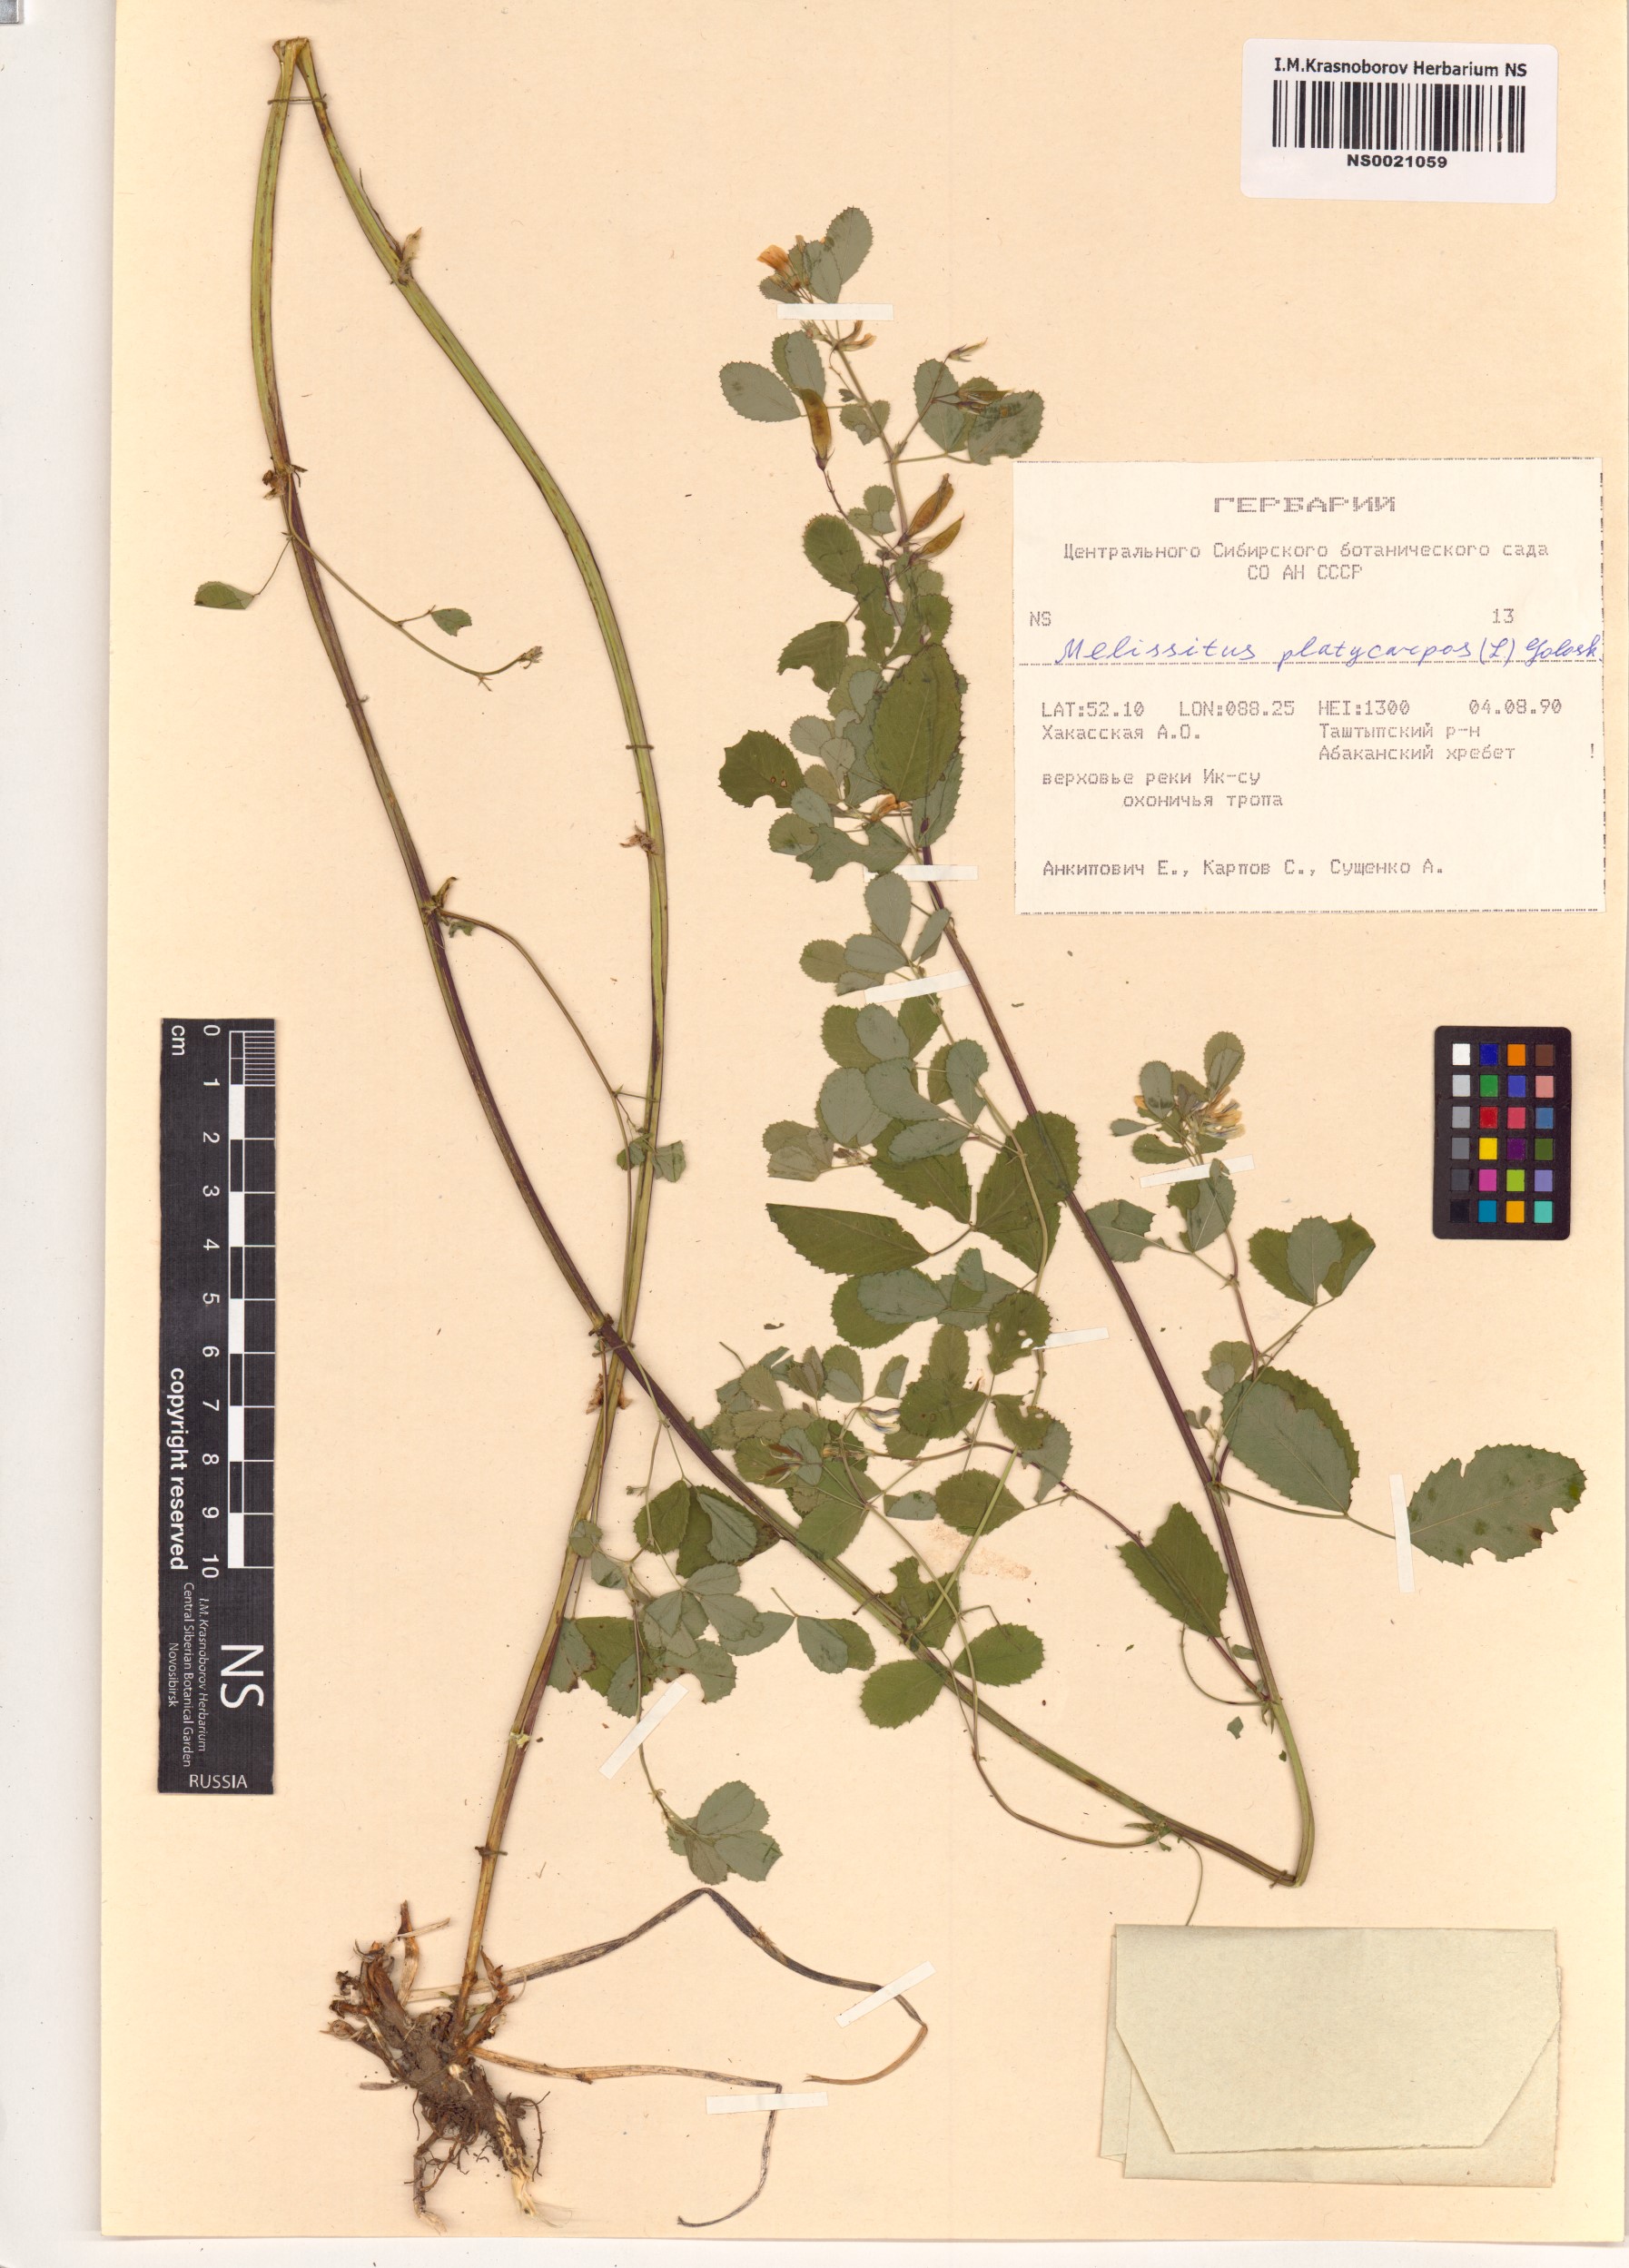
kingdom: Plantae
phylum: Tracheophyta
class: Magnoliopsida
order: Fabales
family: Fabaceae
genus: Medicago
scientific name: Medicago platycarpos
